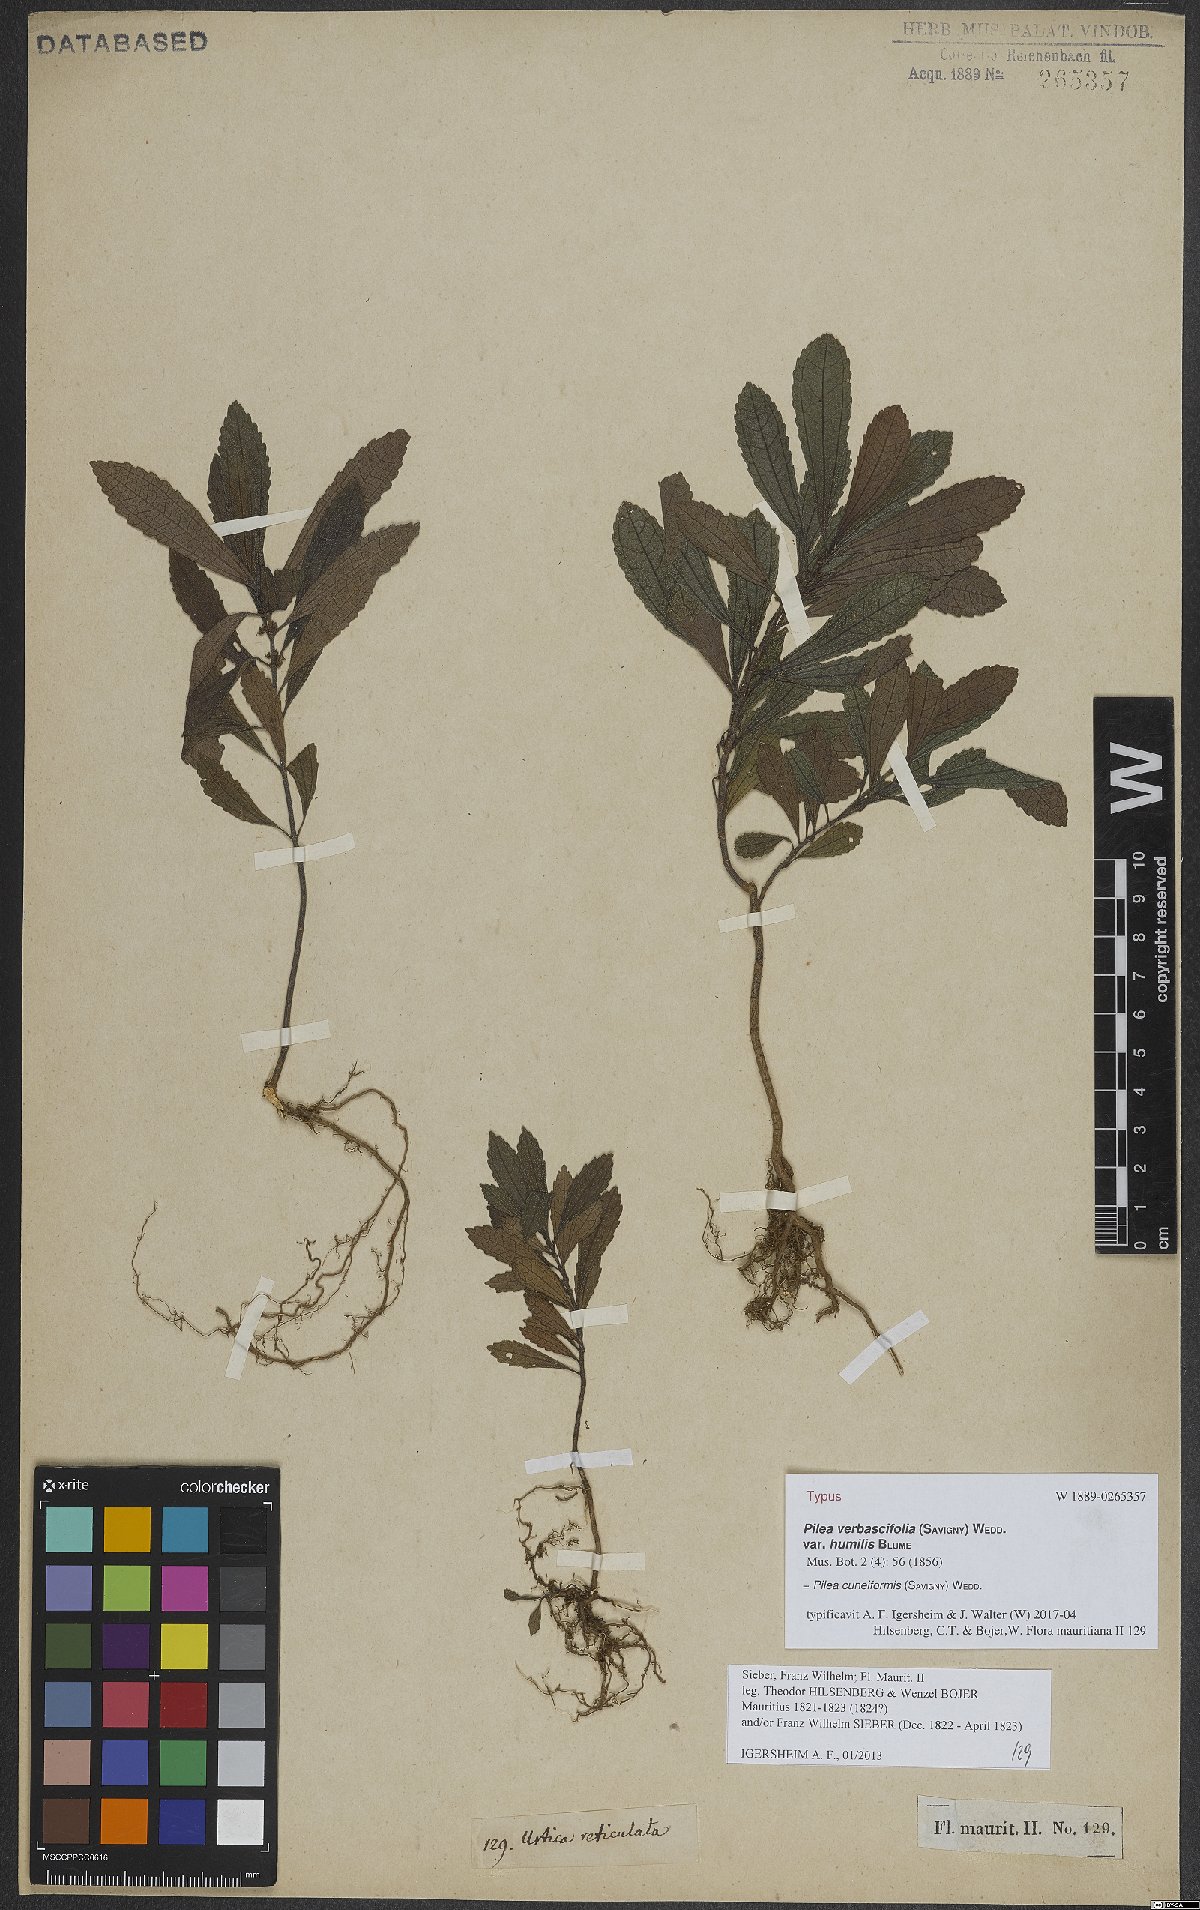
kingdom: Plantae
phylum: Tracheophyta
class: Magnoliopsida
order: Rosales
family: Urticaceae
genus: Pilea
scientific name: Pilea cuneiformis
